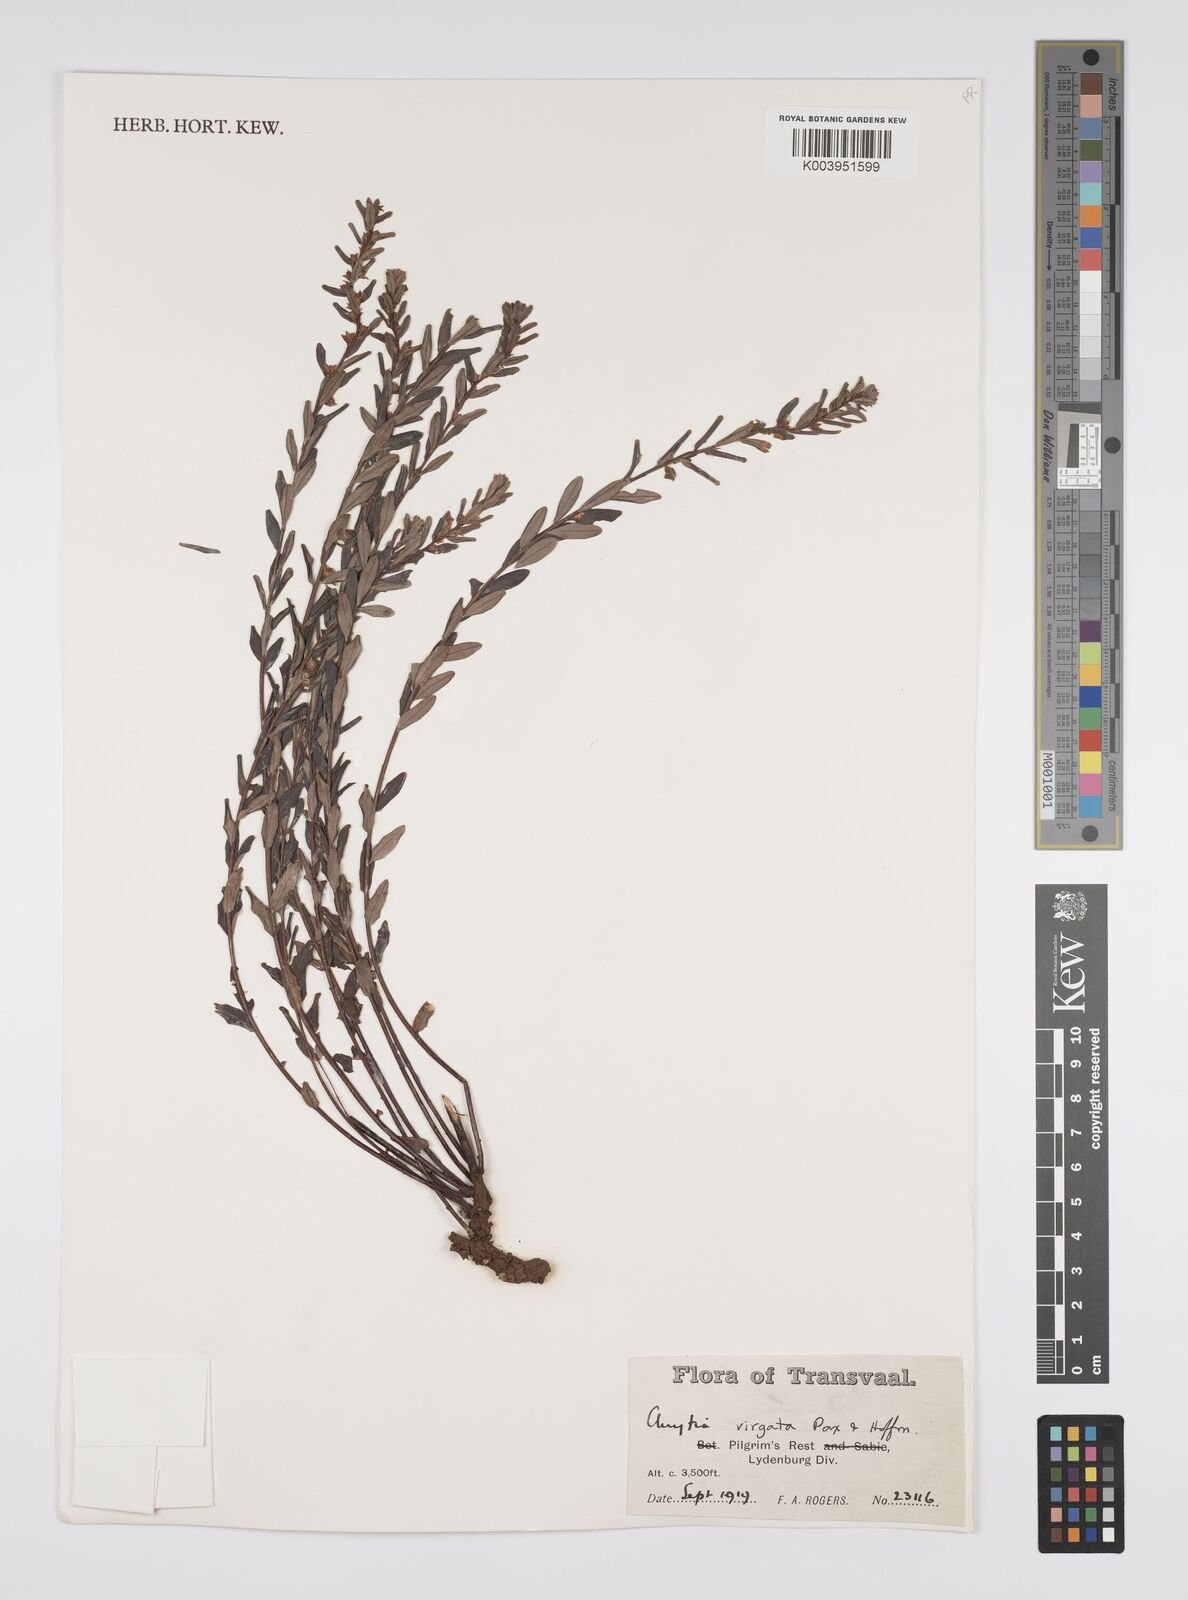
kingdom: Plantae
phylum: Tracheophyta
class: Magnoliopsida
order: Malpighiales
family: Peraceae
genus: Clutia
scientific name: Clutia virgata
